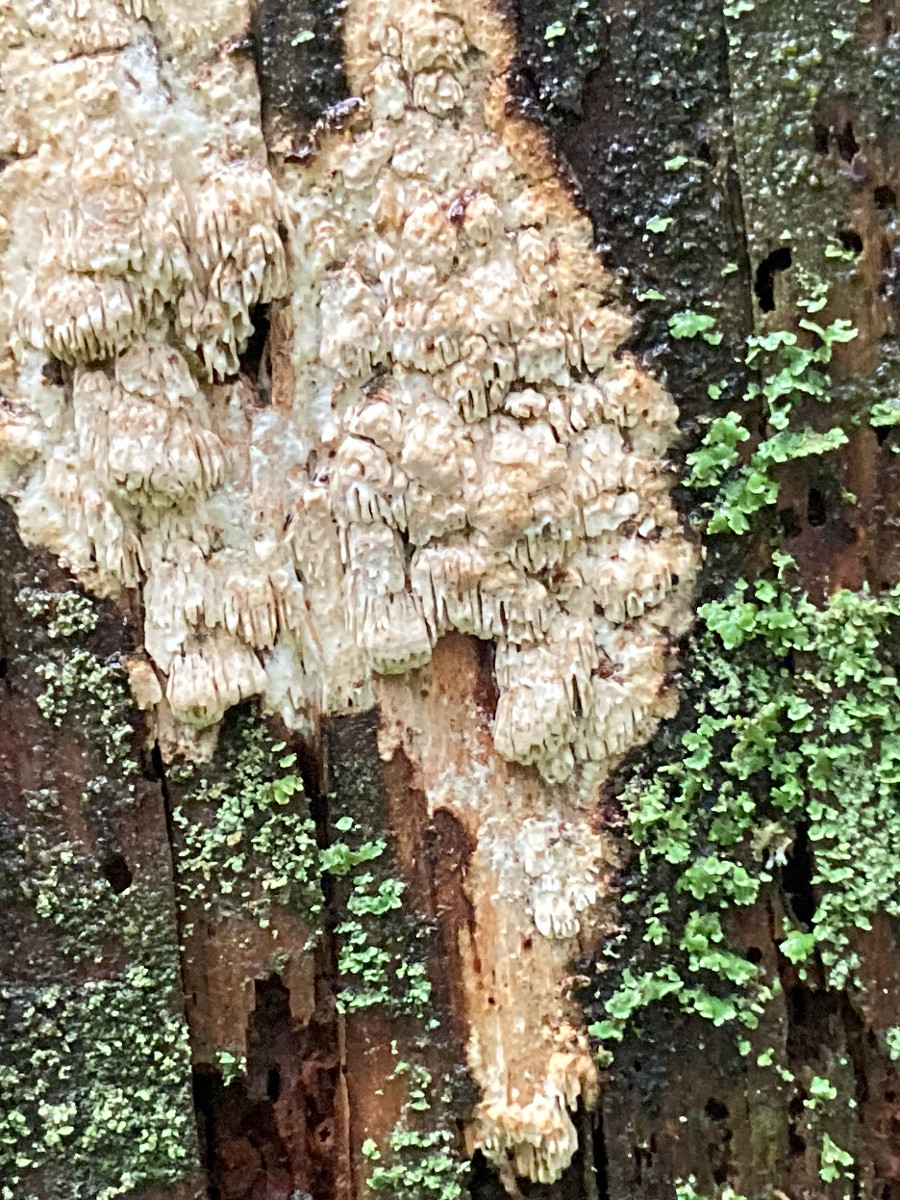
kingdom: Fungi
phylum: Basidiomycota
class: Agaricomycetes
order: Polyporales
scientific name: Polyporales
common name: poresvampordenen
